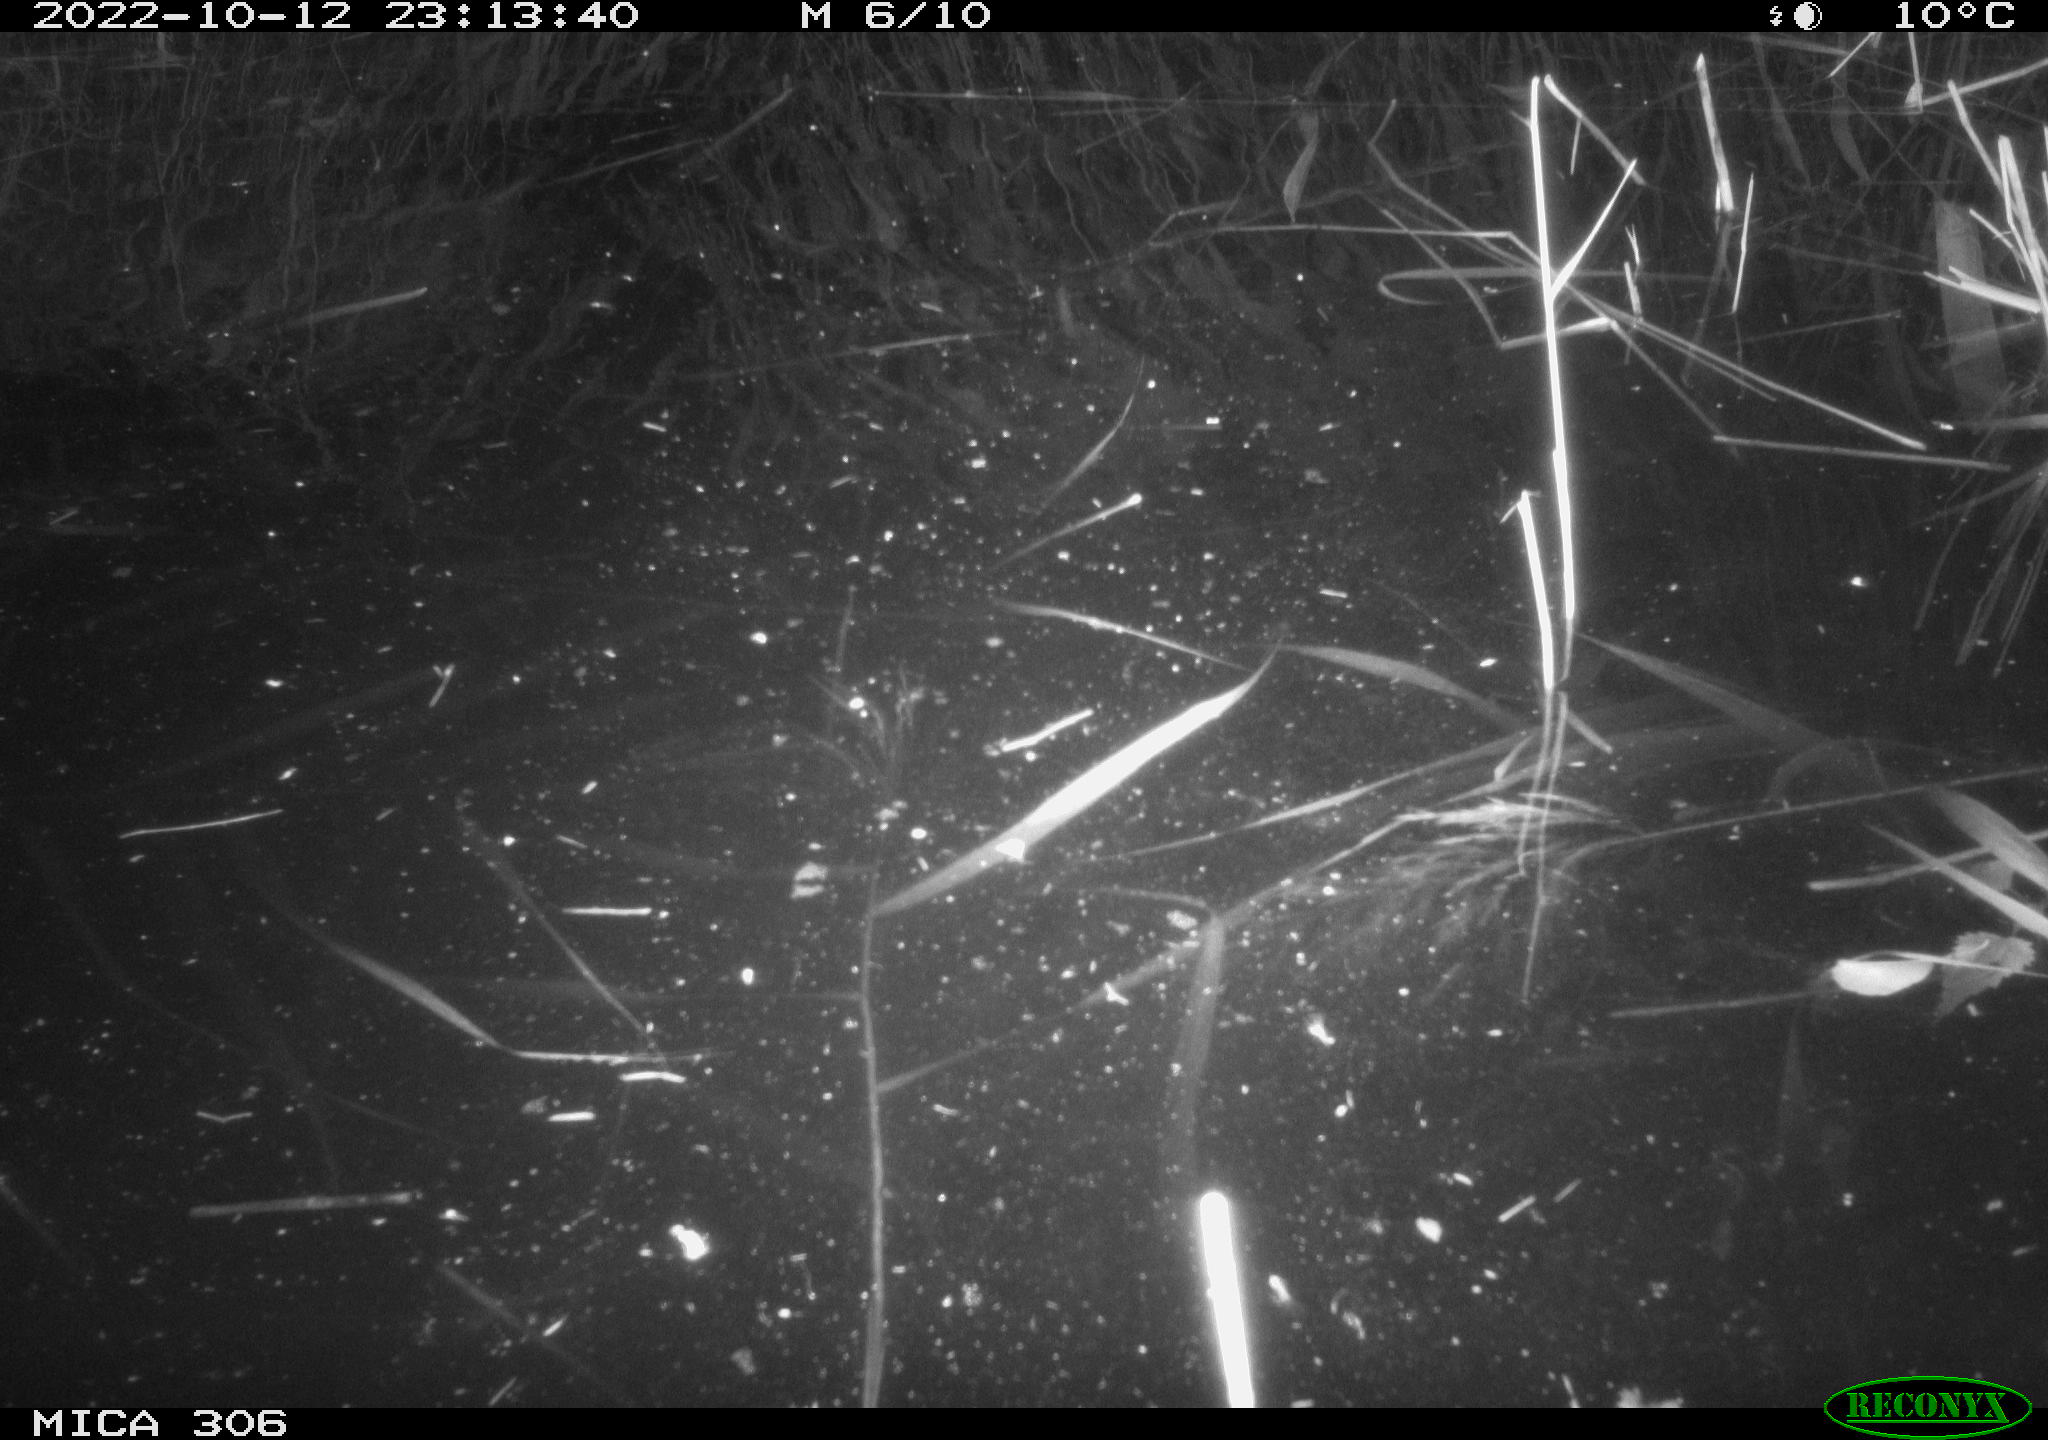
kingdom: Animalia
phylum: Chordata
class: Mammalia
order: Rodentia
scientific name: Rodentia
